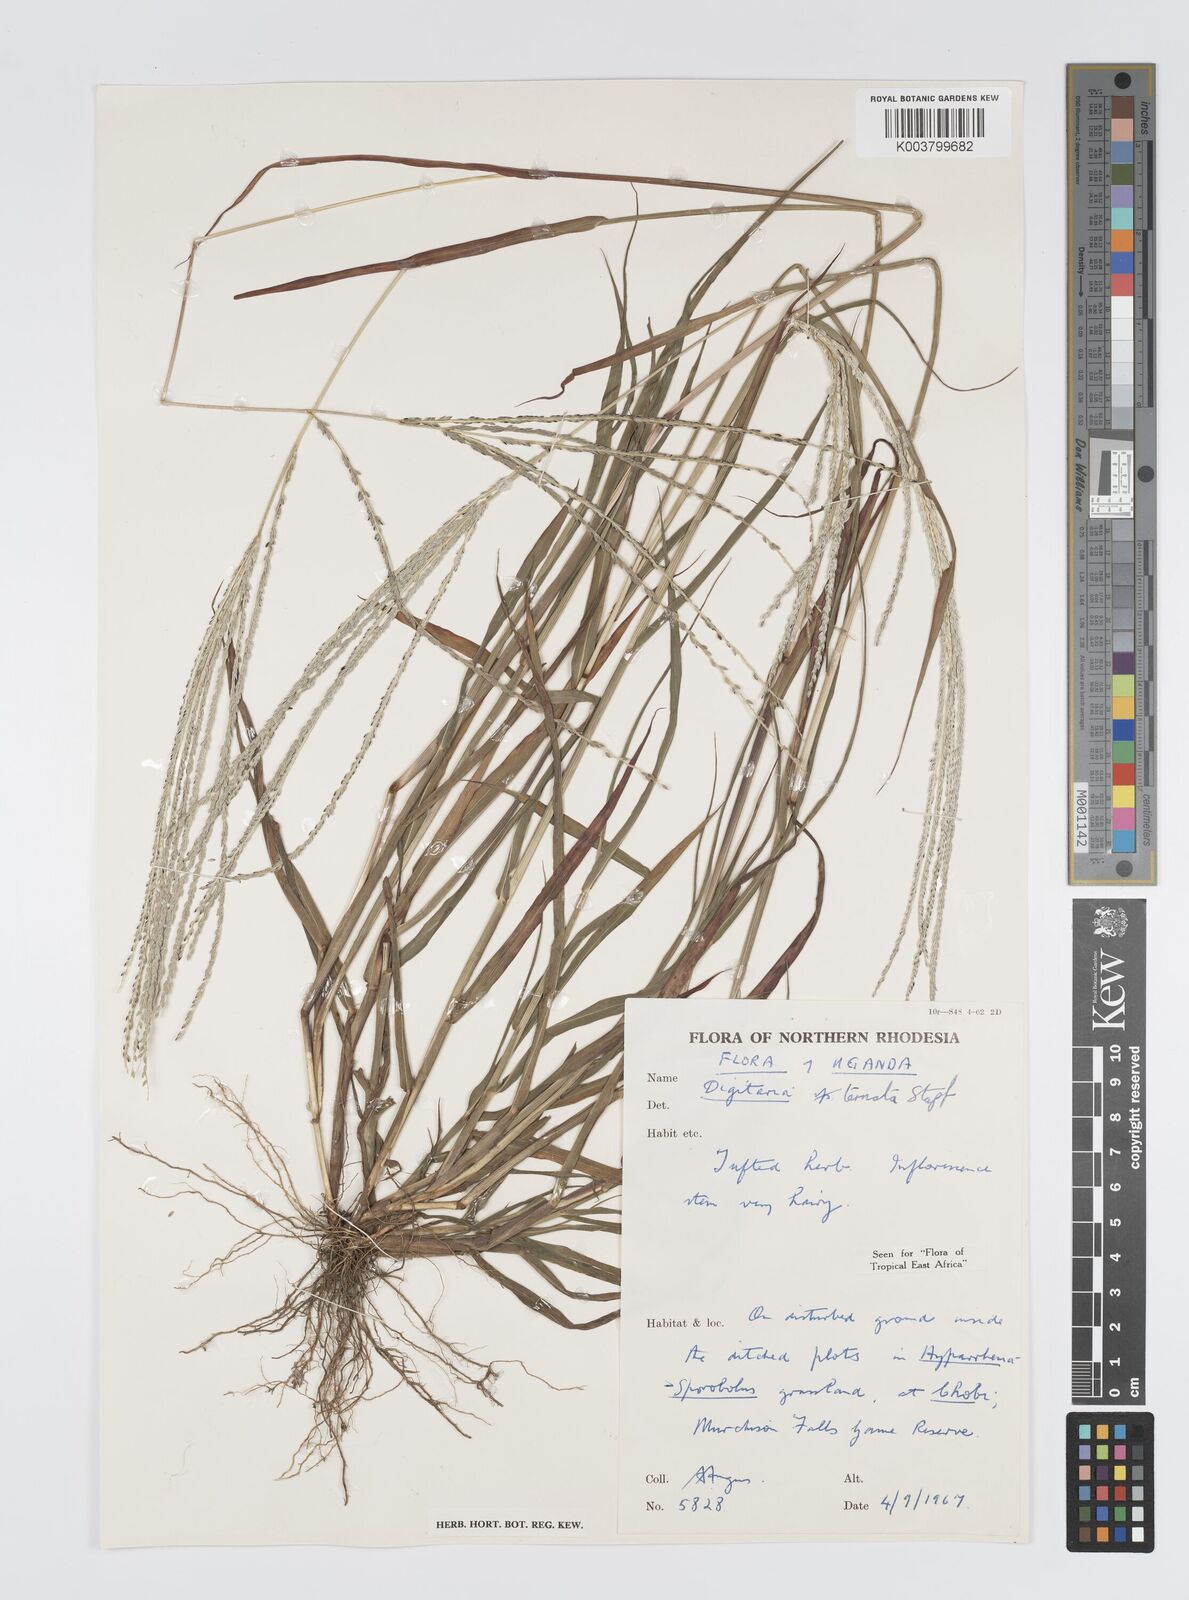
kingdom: Plantae
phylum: Tracheophyta
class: Liliopsida
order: Poales
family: Poaceae
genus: Digitaria
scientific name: Digitaria ternata
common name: Blackseed crabgrass
